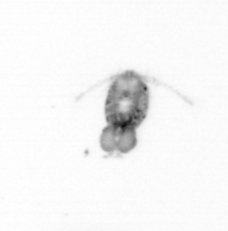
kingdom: Animalia
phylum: Arthropoda
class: Copepoda
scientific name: Copepoda
